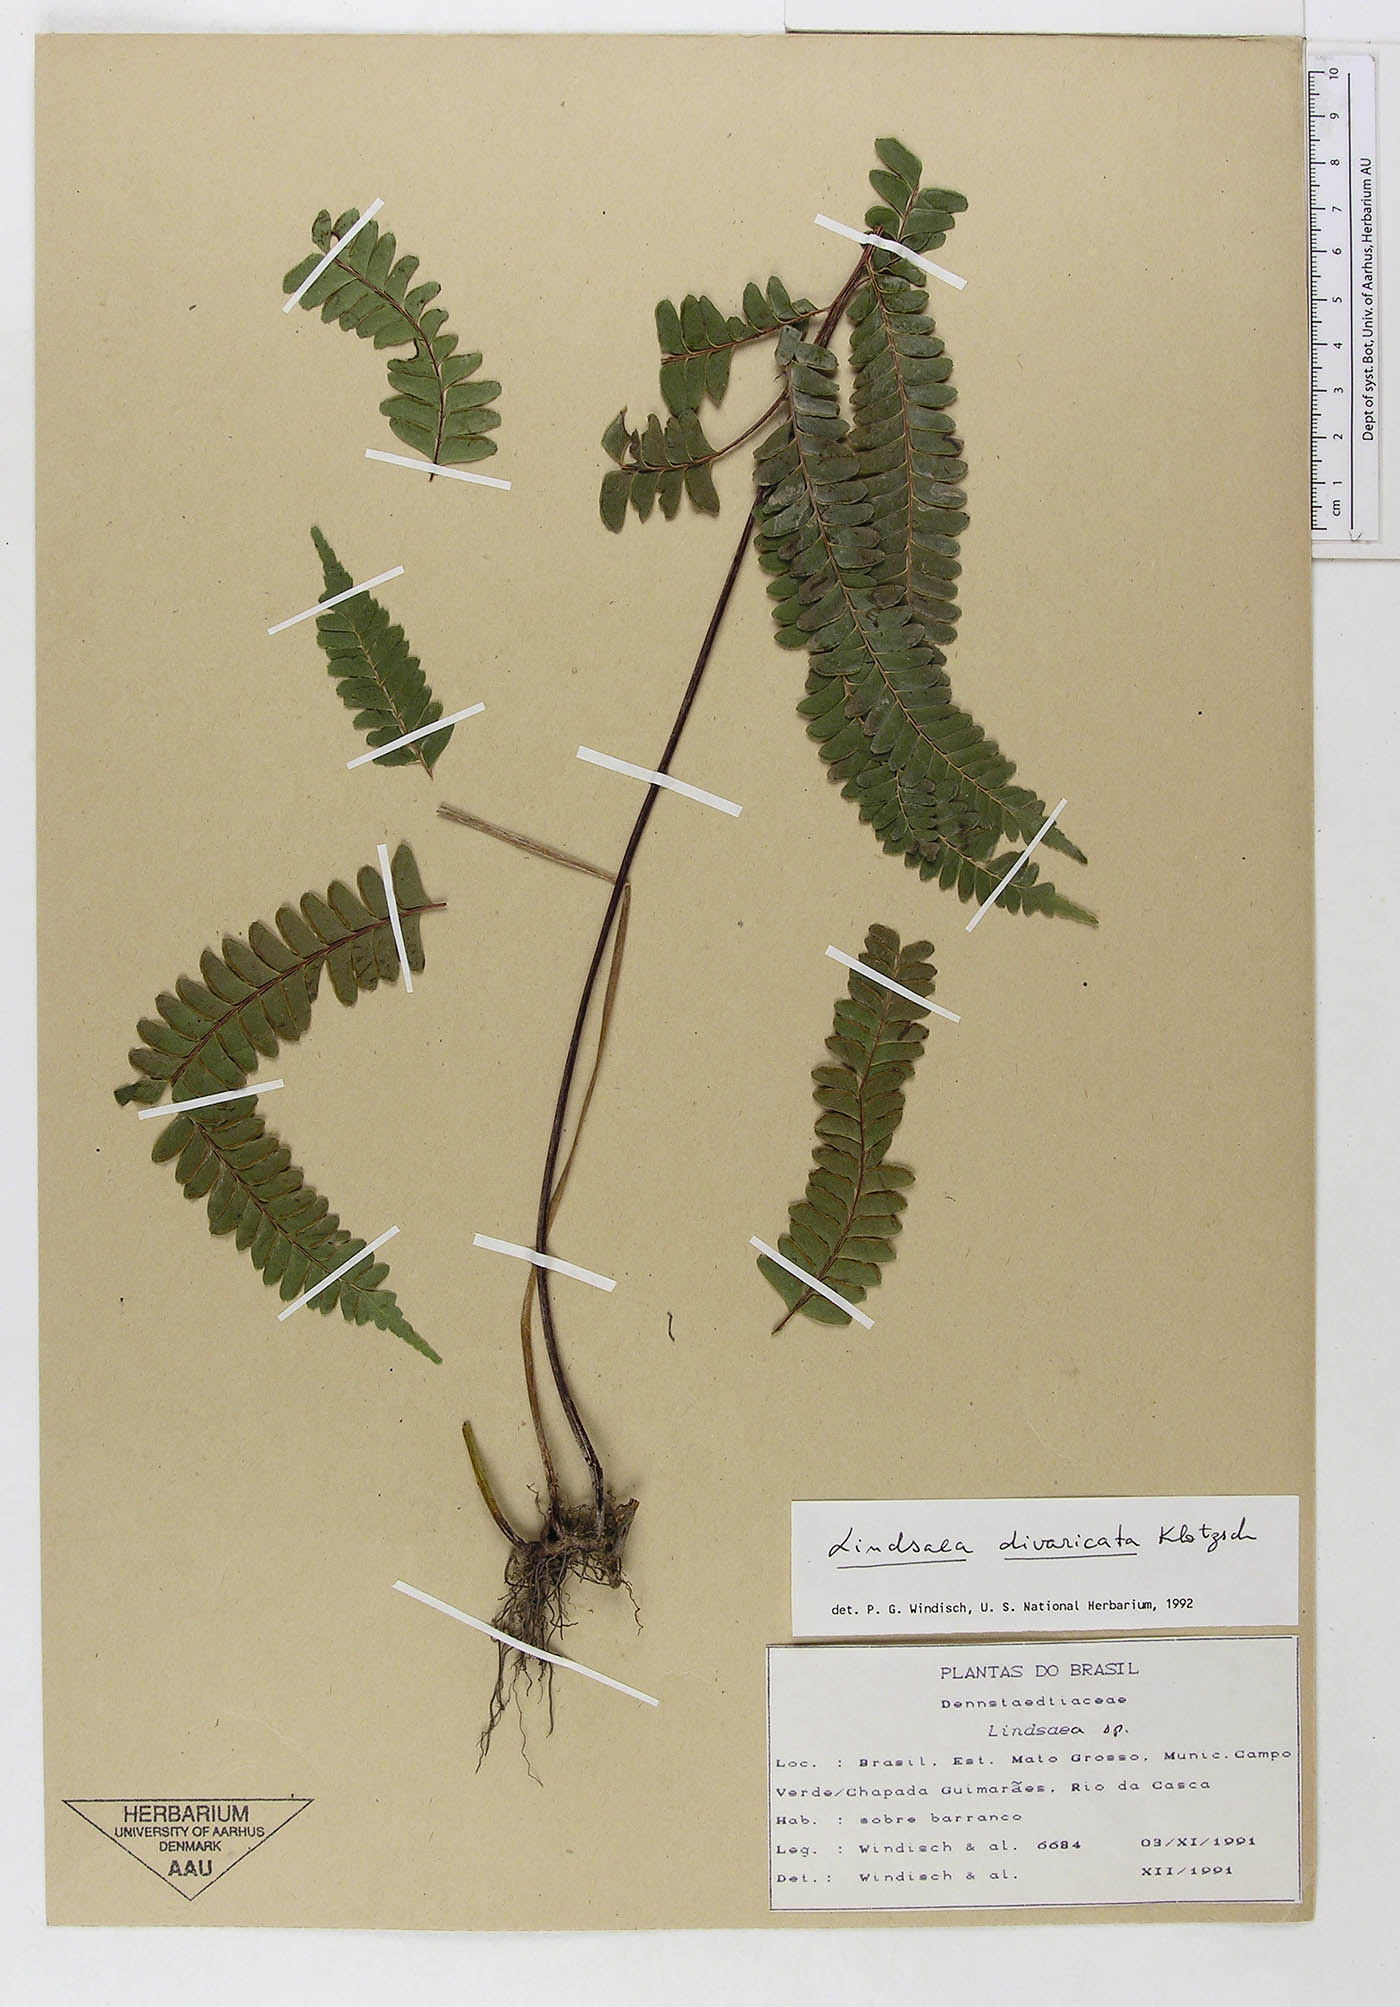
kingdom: Plantae
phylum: Tracheophyta
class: Polypodiopsida
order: Polypodiales
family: Lindsaeaceae
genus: Lindsaea
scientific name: Lindsaea divaricata
